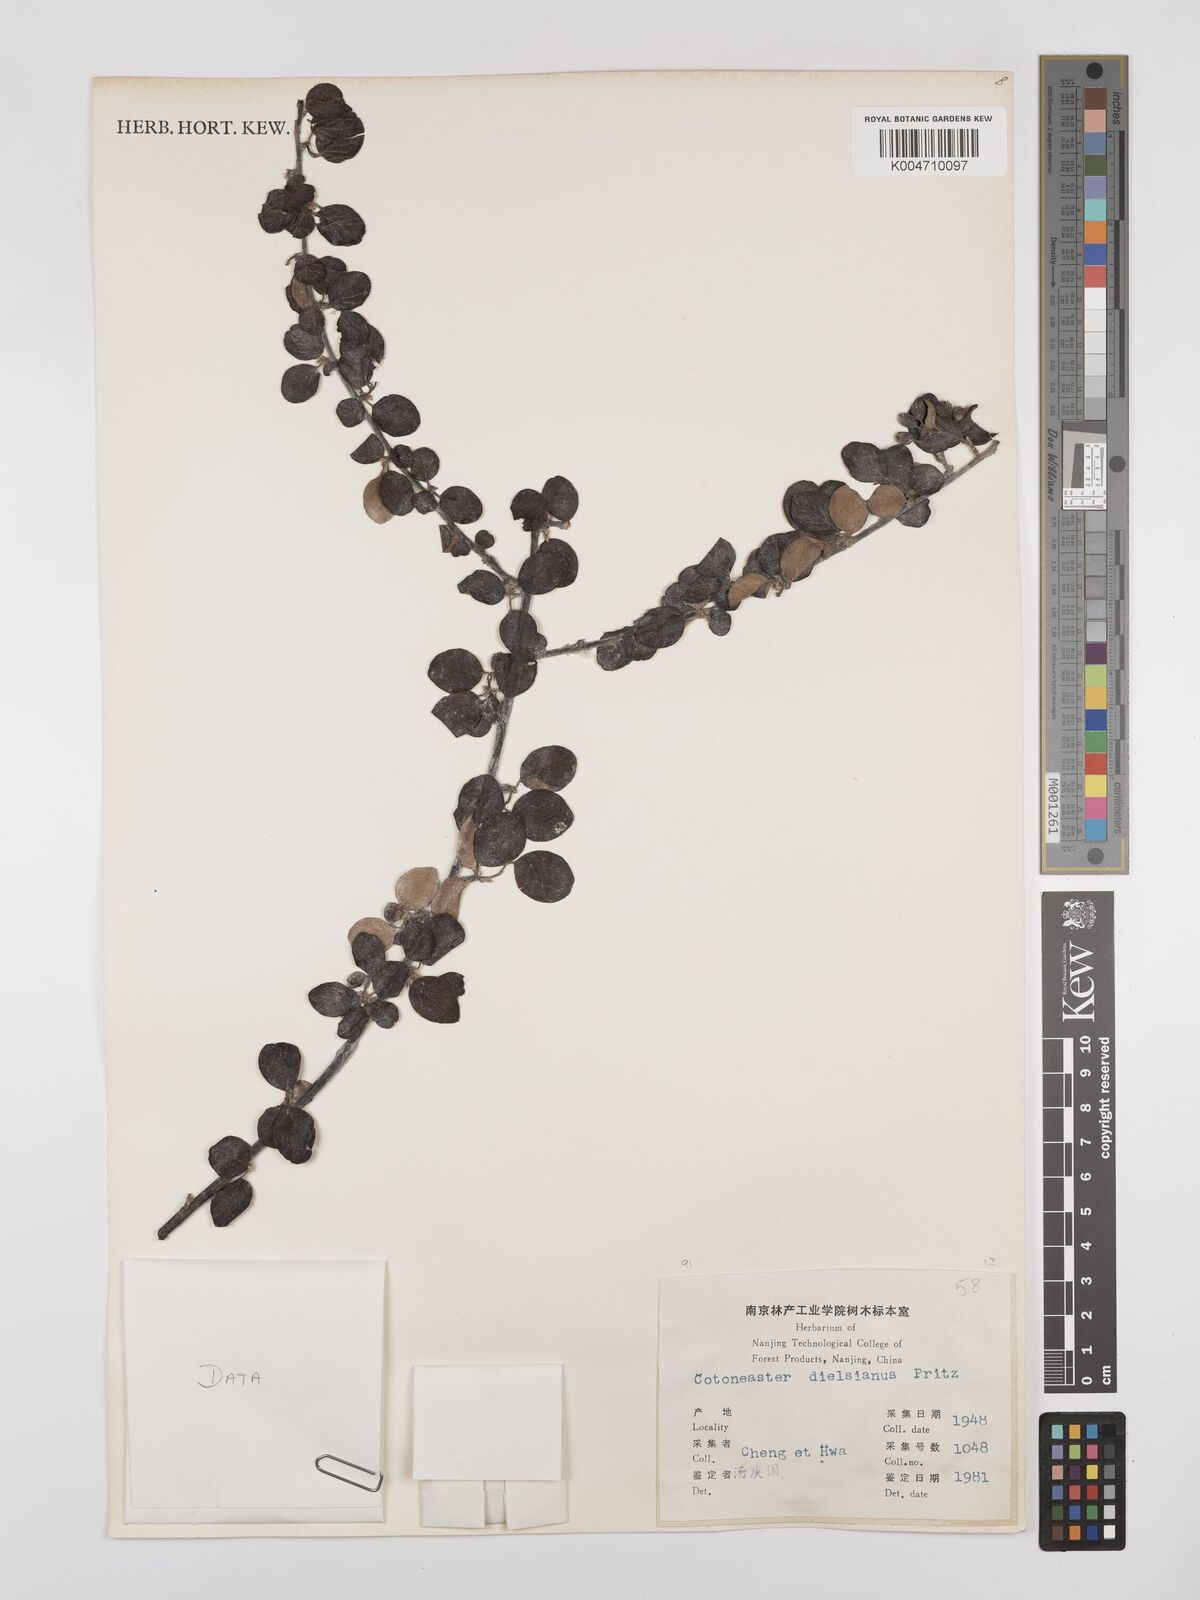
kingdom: Plantae
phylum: Tracheophyta
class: Magnoliopsida
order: Rosales
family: Rosaceae
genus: Cotoneaster
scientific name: Cotoneaster dielsianus
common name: Diels's cotoneaster
